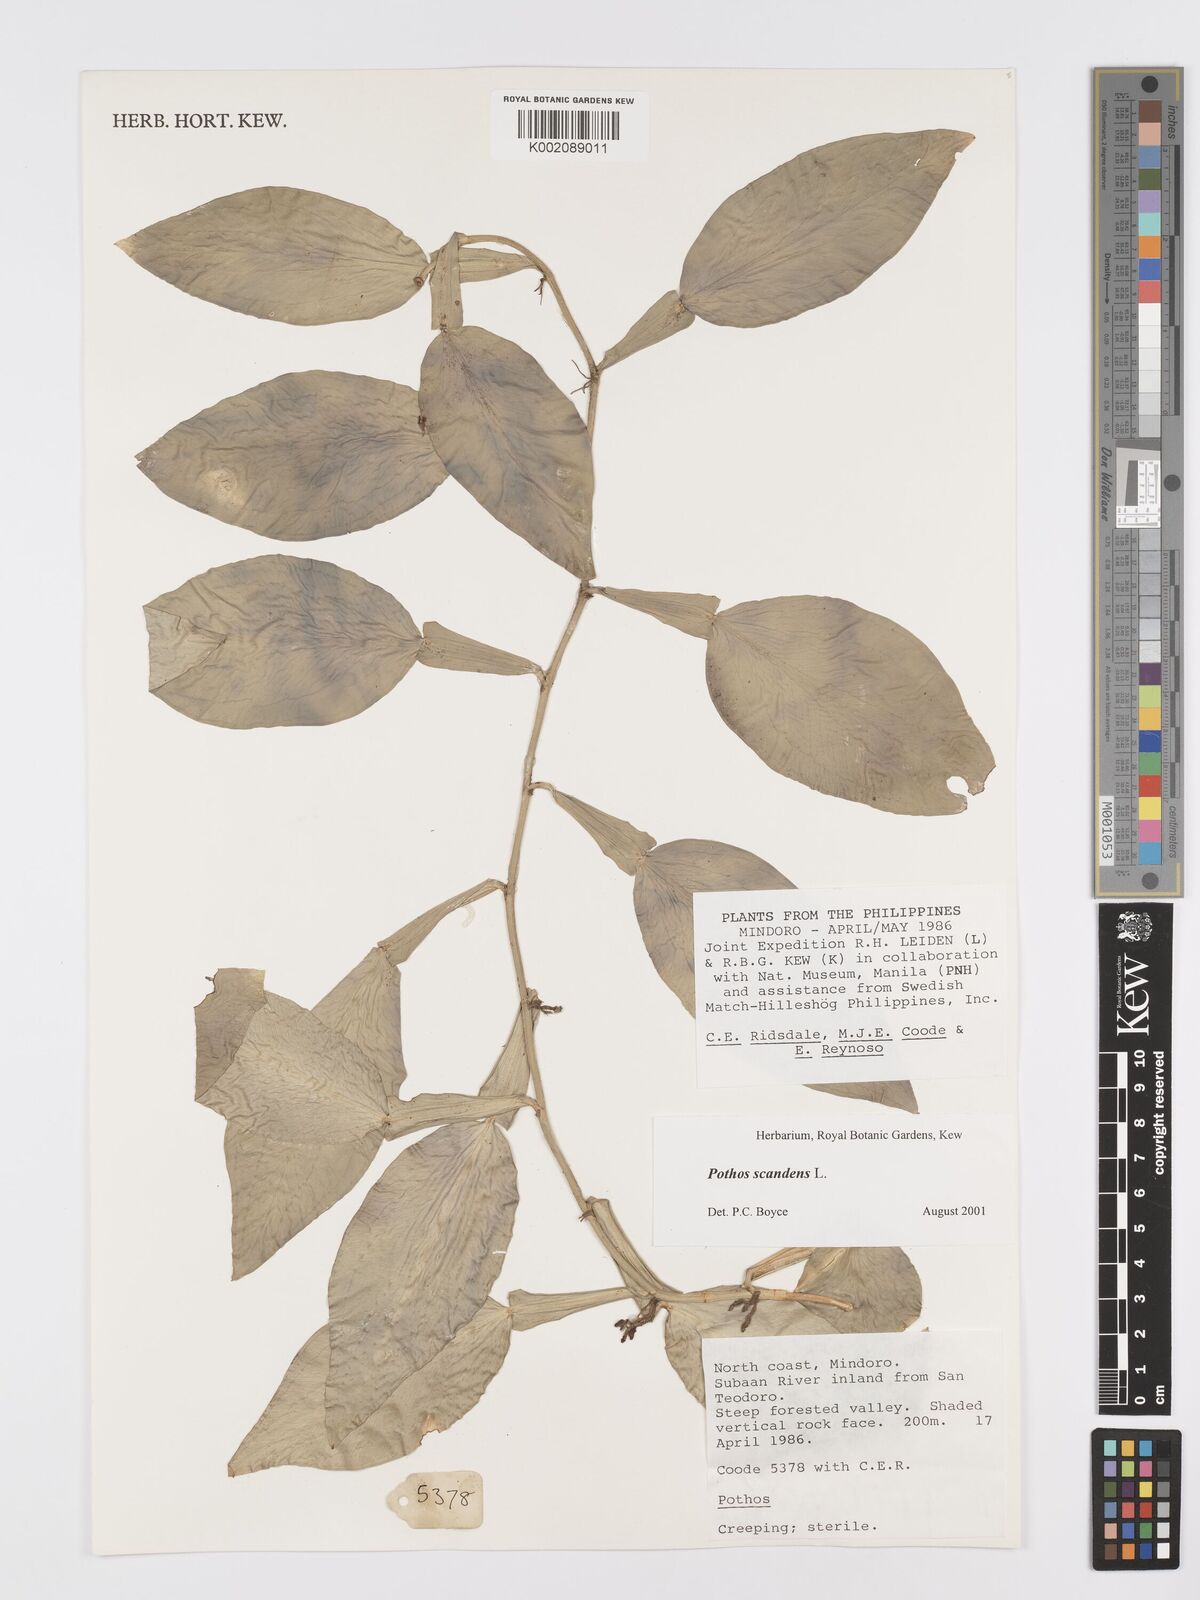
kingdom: Plantae
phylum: Tracheophyta
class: Liliopsida
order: Alismatales
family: Araceae
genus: Pothos
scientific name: Pothos scandens
